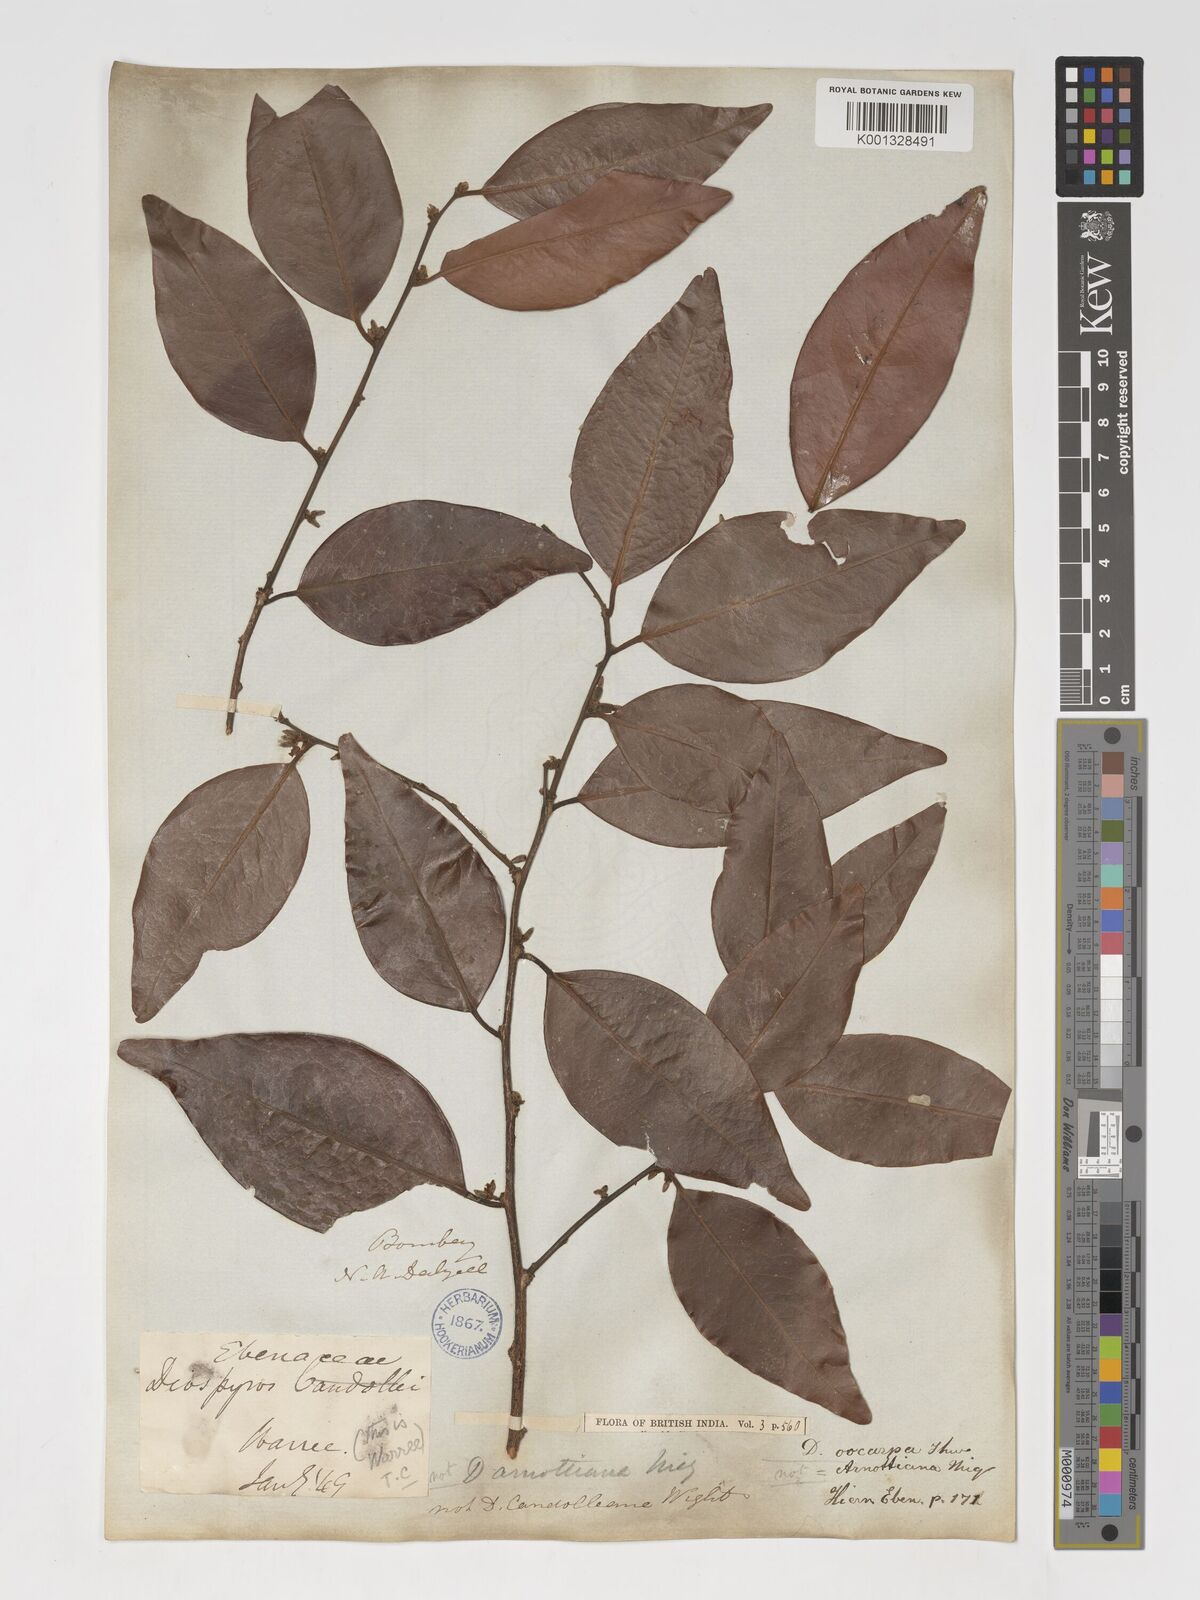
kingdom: Plantae
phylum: Tracheophyta
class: Magnoliopsida
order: Ericales
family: Ebenaceae
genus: Diospyros
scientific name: Diospyros oocarpa
